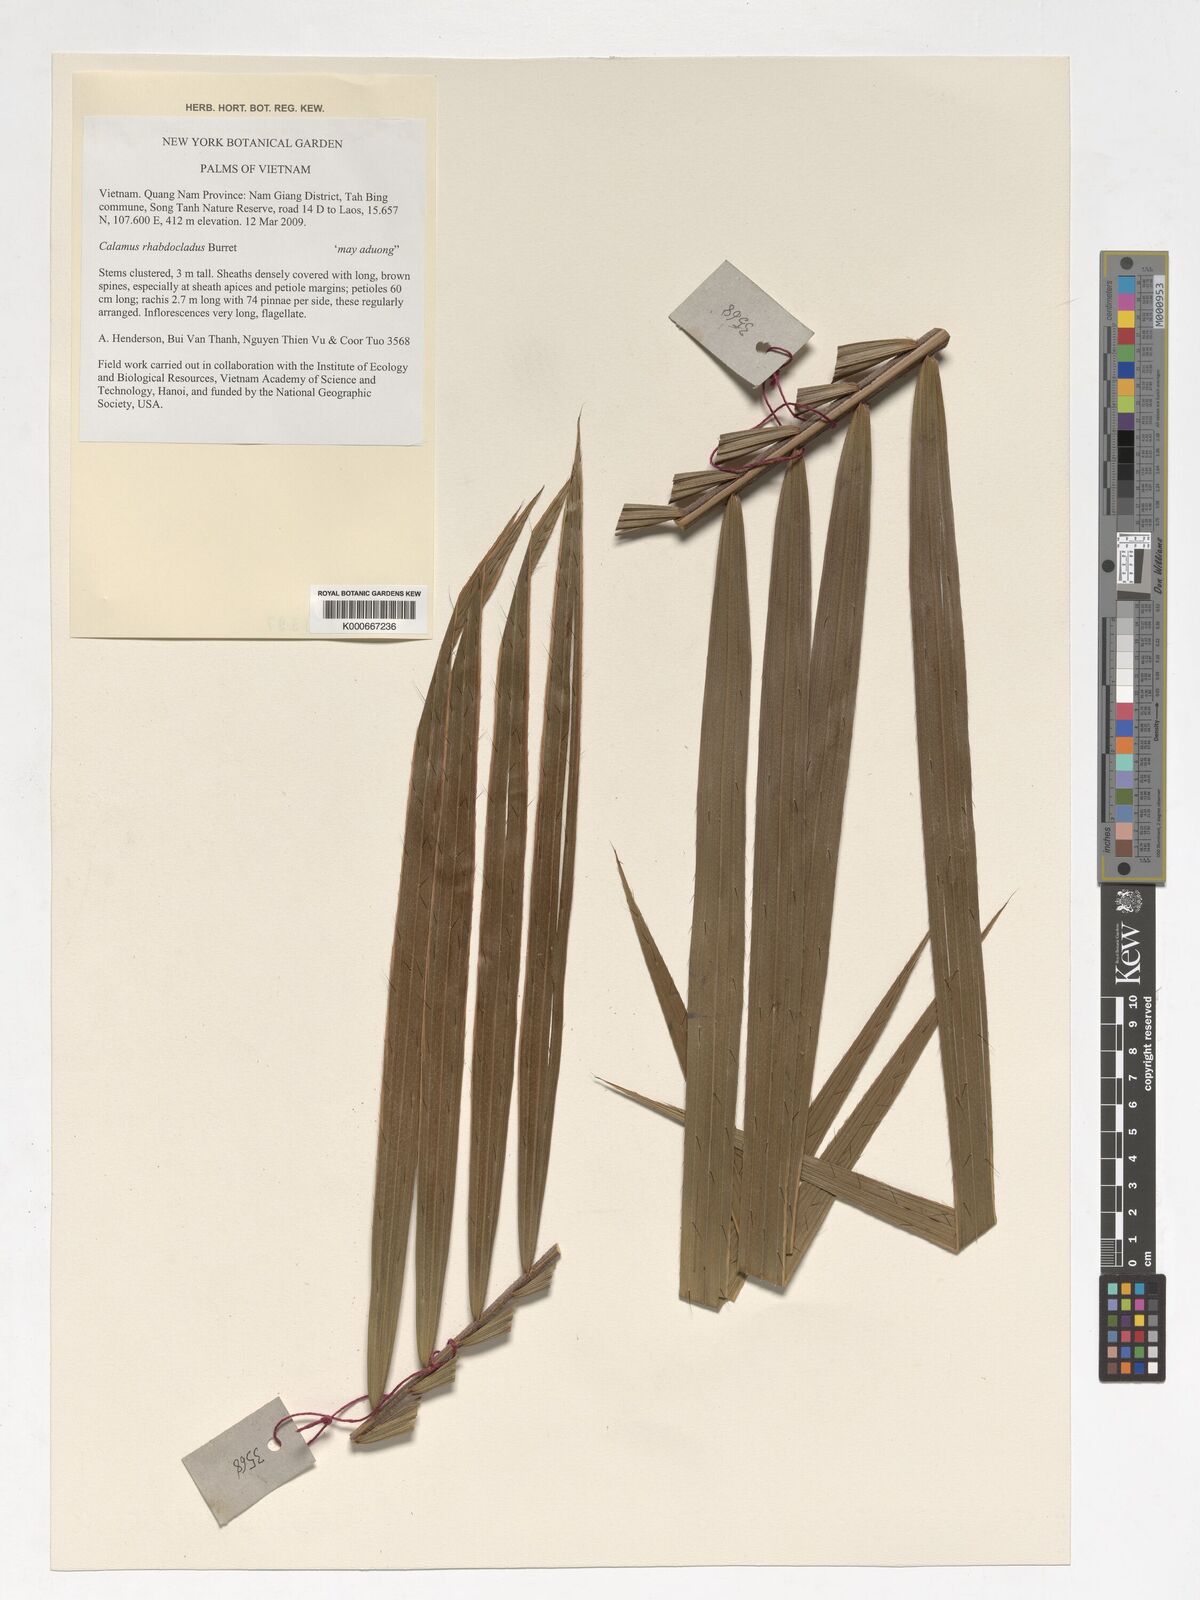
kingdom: Plantae
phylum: Tracheophyta
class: Liliopsida
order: Arecales
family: Arecaceae
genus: Calamus
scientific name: Calamus rhabdocladus
